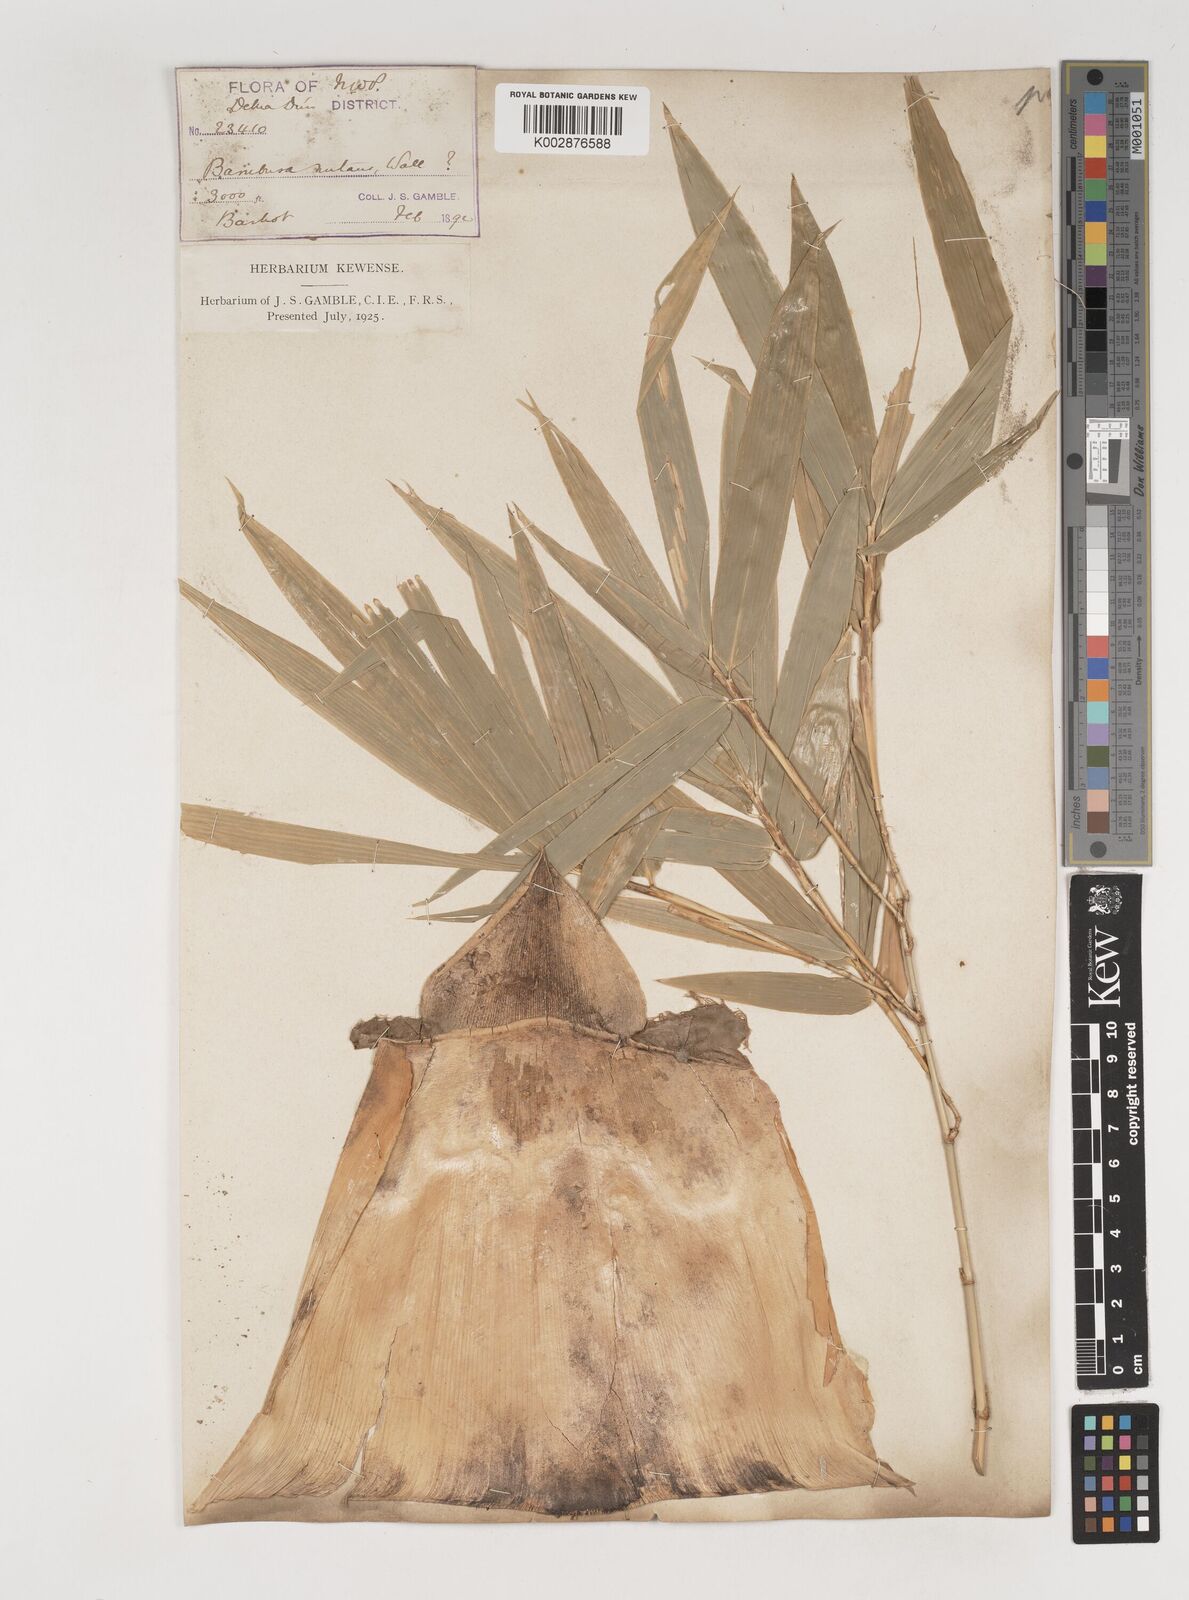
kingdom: Plantae
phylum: Tracheophyta
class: Liliopsida
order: Poales
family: Poaceae
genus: Bambusa
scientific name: Bambusa nutans
